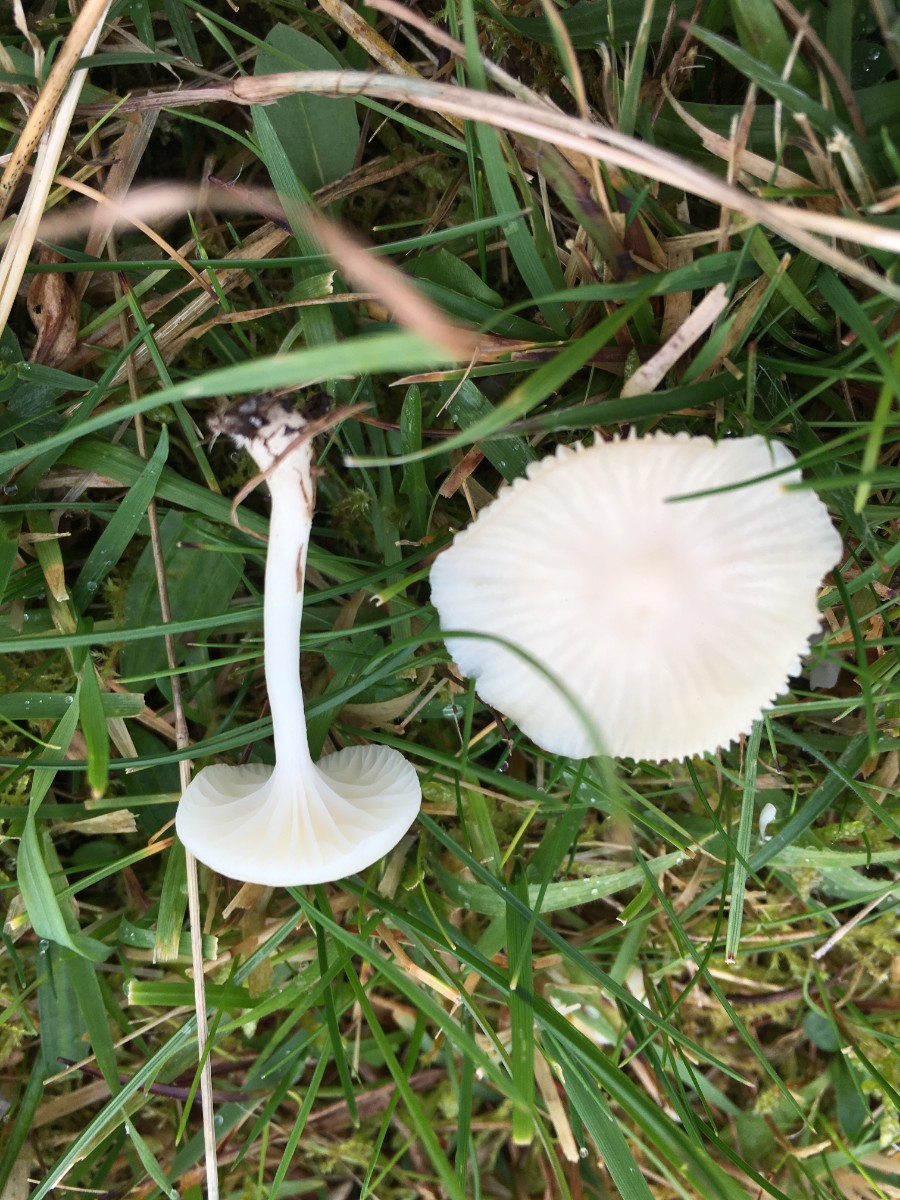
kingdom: Fungi
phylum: Basidiomycota
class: Agaricomycetes
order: Agaricales
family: Hygrophoraceae
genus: Cuphophyllus
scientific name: Cuphophyllus virgineus
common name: snehvid vokshat
